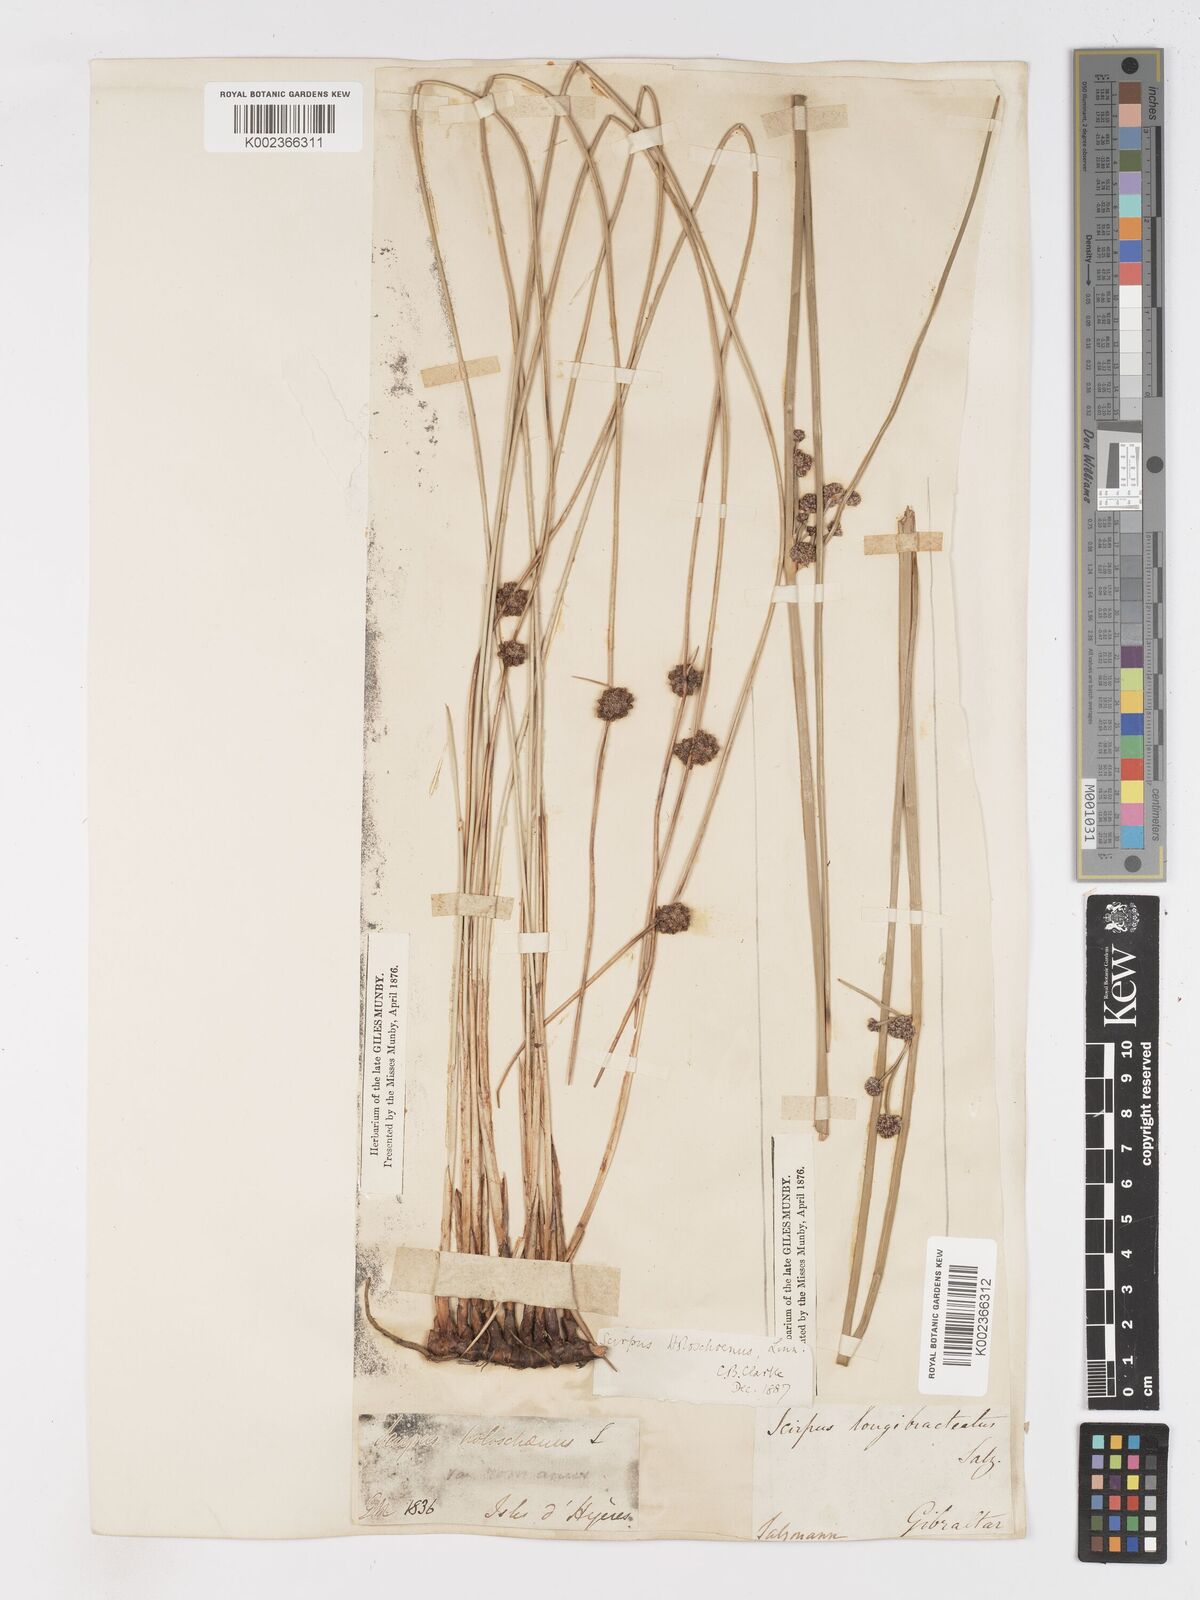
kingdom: Plantae
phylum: Tracheophyta
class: Liliopsida
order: Poales
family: Cyperaceae
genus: Scirpoides
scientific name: Scirpoides holoschoenus
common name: Round-headed club-rush
